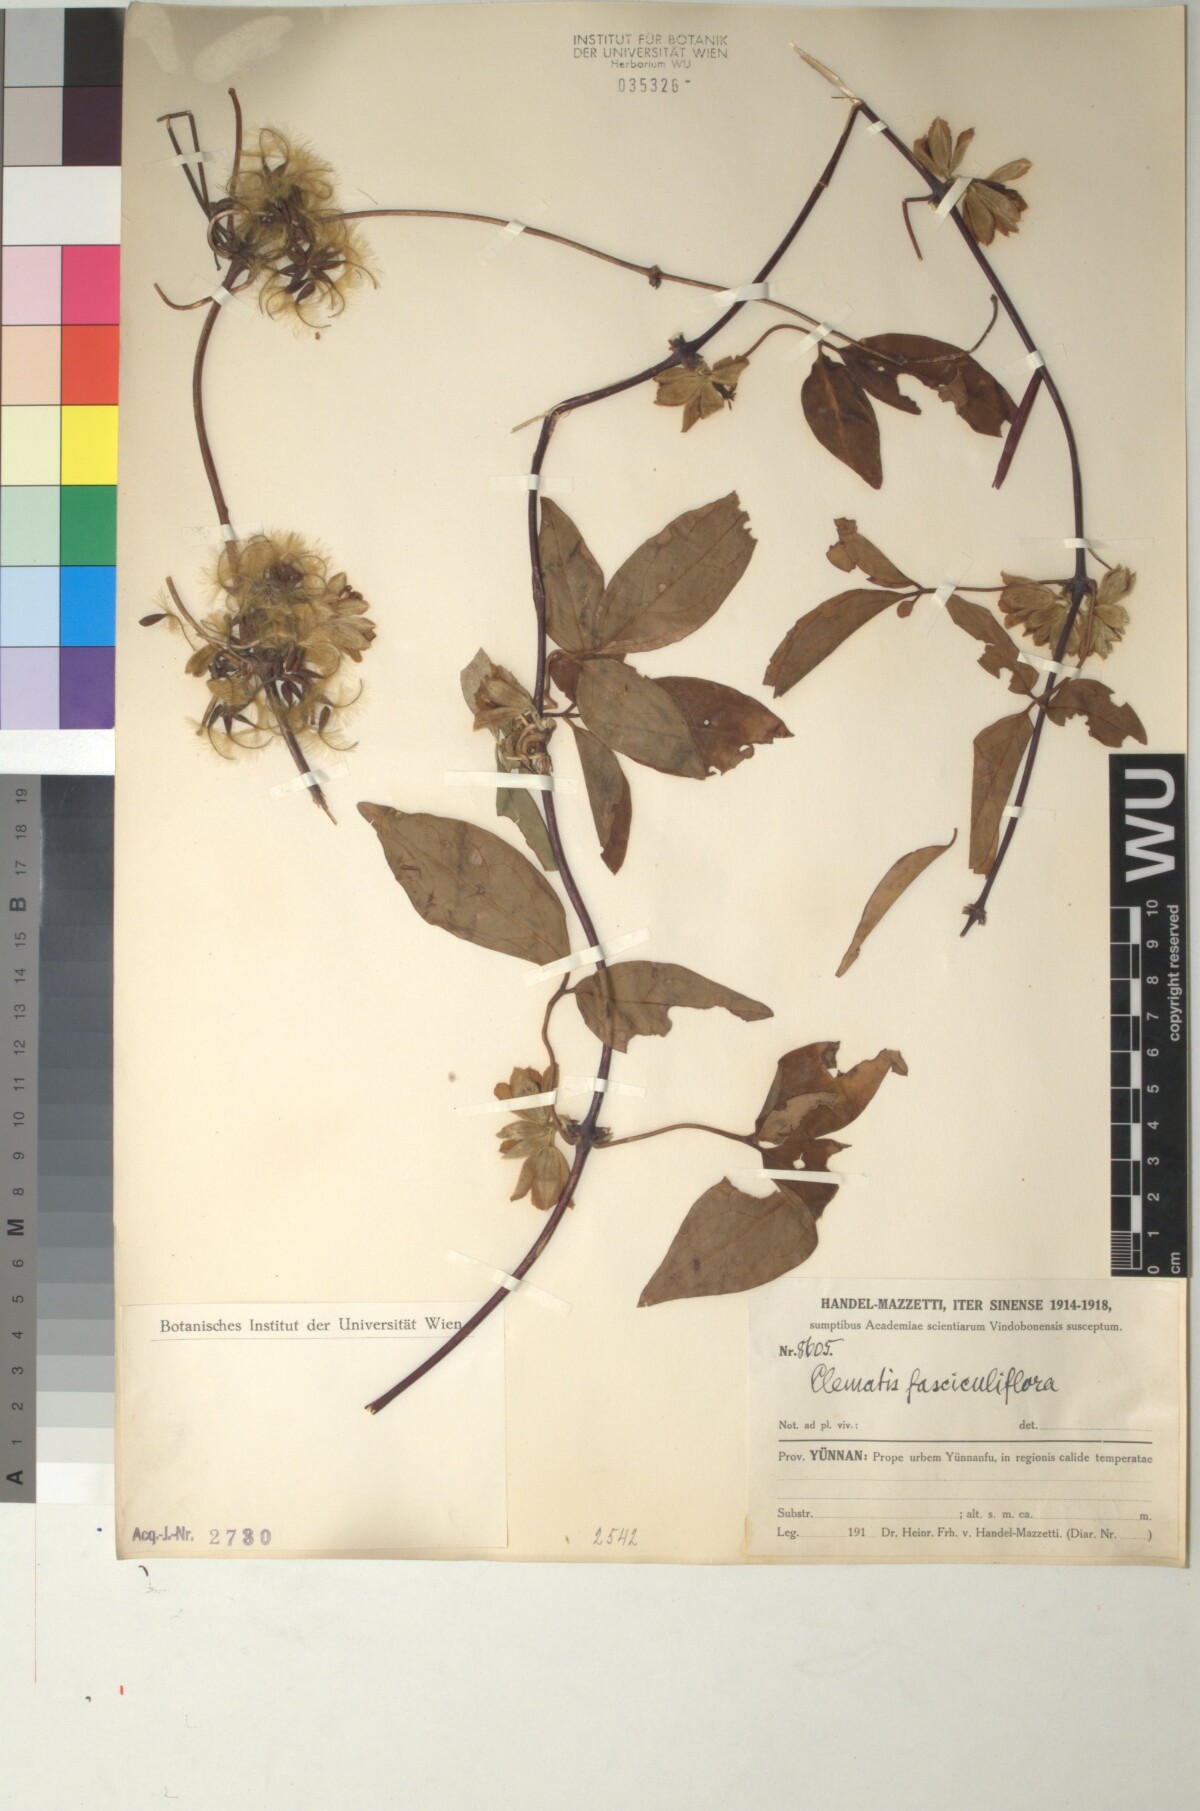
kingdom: Plantae
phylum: Tracheophyta
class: Magnoliopsida
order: Ranunculales
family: Ranunculaceae
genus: Clematis
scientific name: Clematis fasciculiflora
